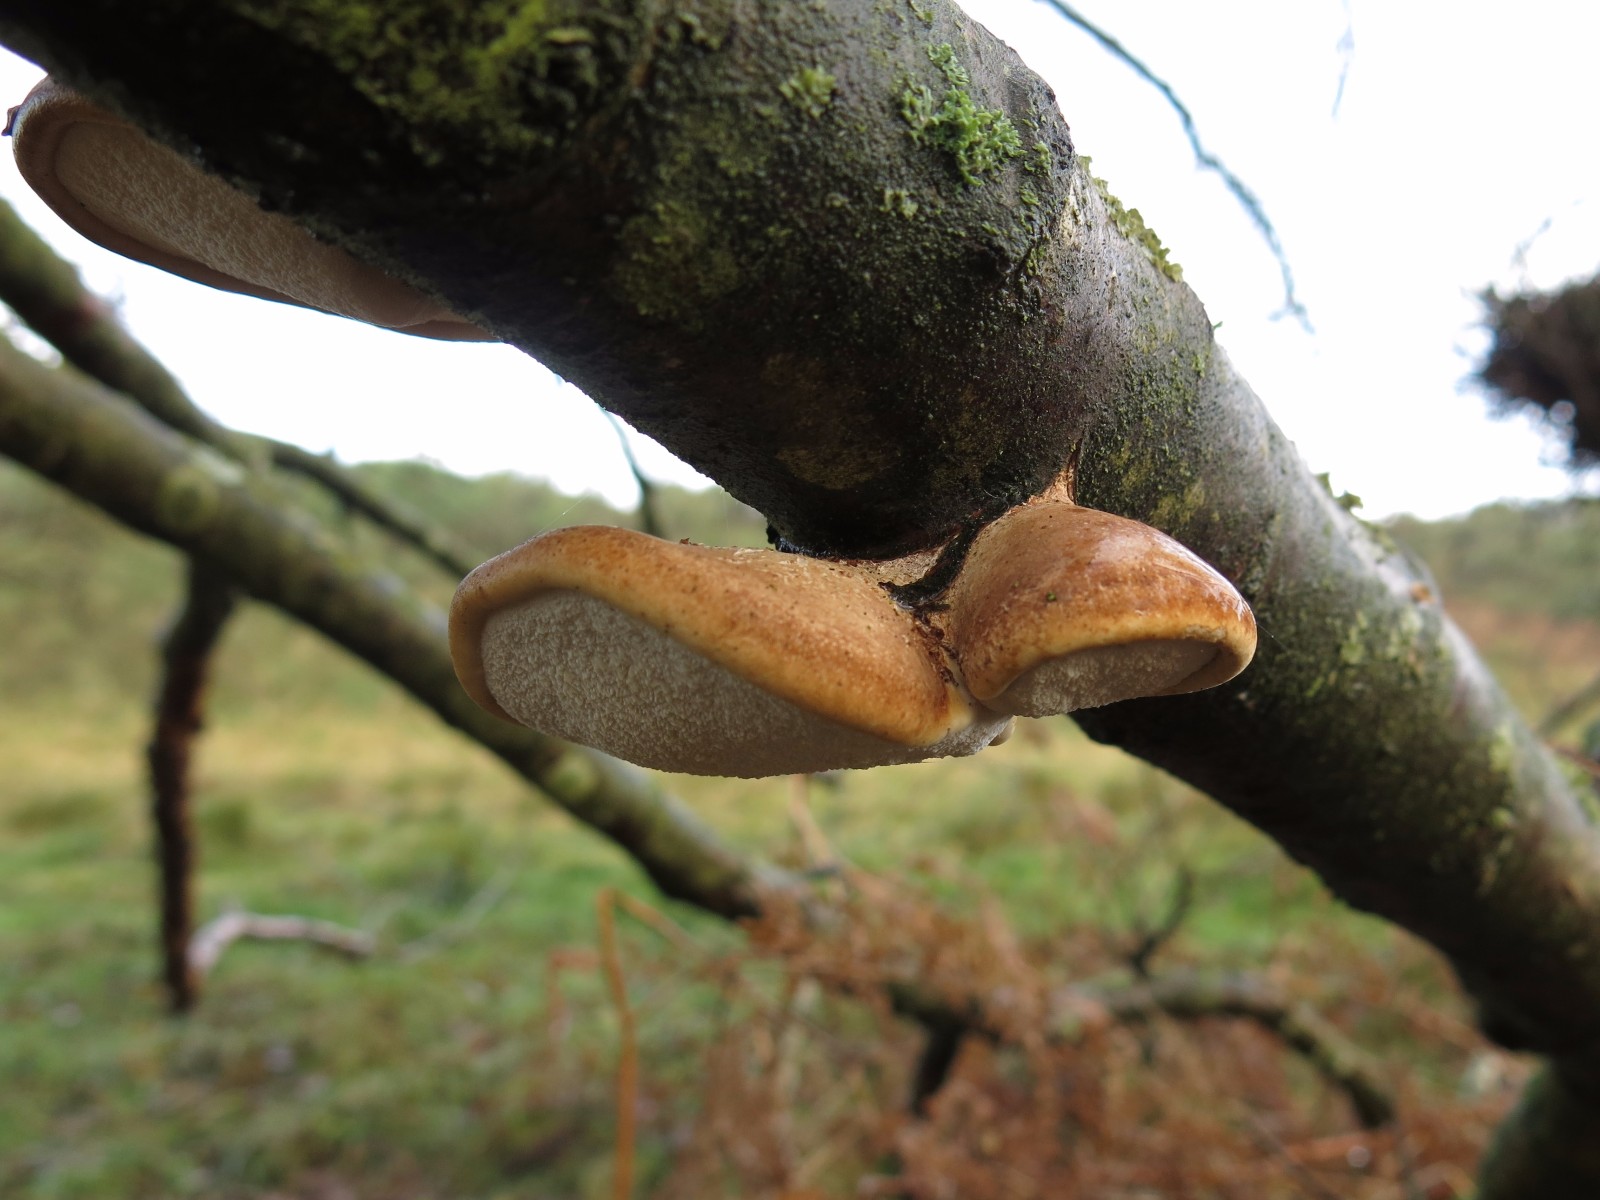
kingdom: Fungi
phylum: Basidiomycota
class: Agaricomycetes
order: Polyporales
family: Fomitopsidaceae
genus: Fomitopsis
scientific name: Fomitopsis betulina
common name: birkeporesvamp
